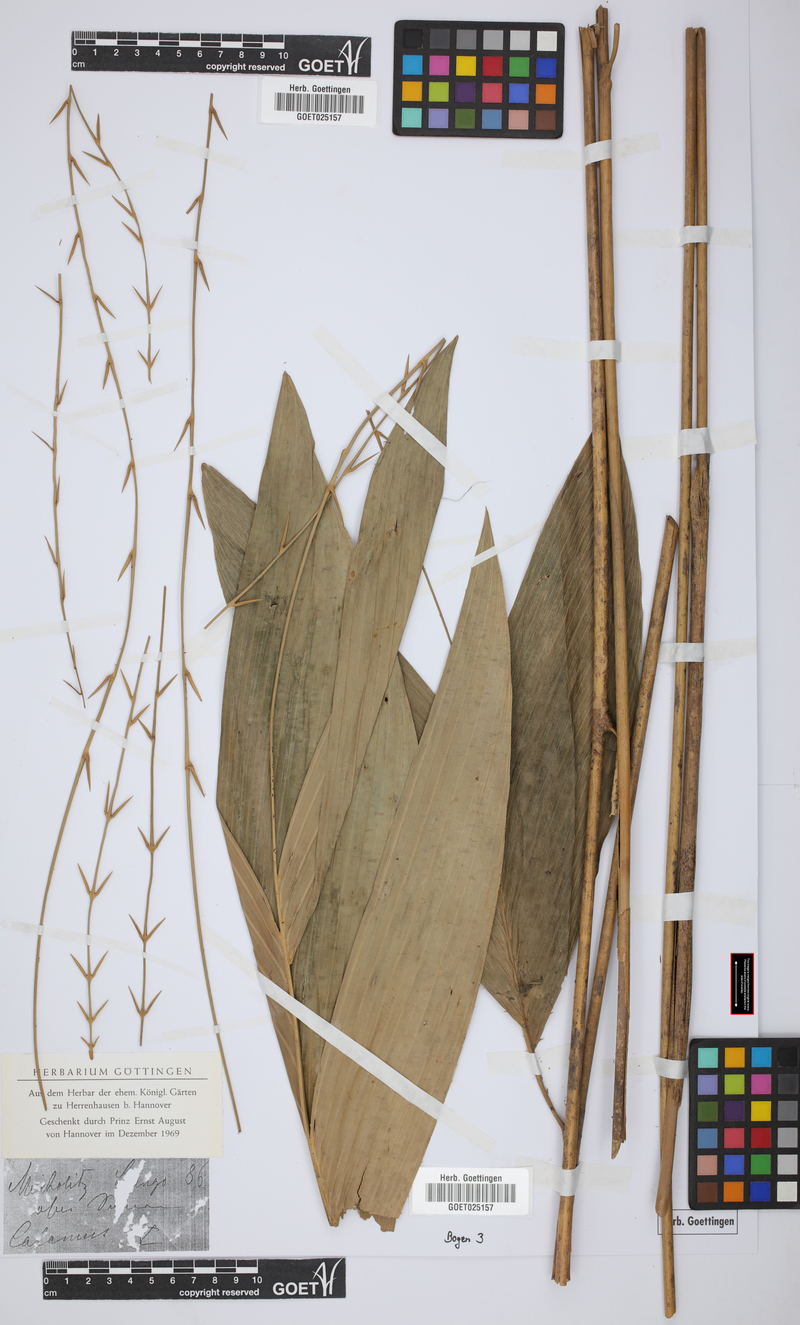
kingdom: Plantae
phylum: Tracheophyta
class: Liliopsida
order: Arecales
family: Arecaceae
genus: Calamus
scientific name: Calamus
